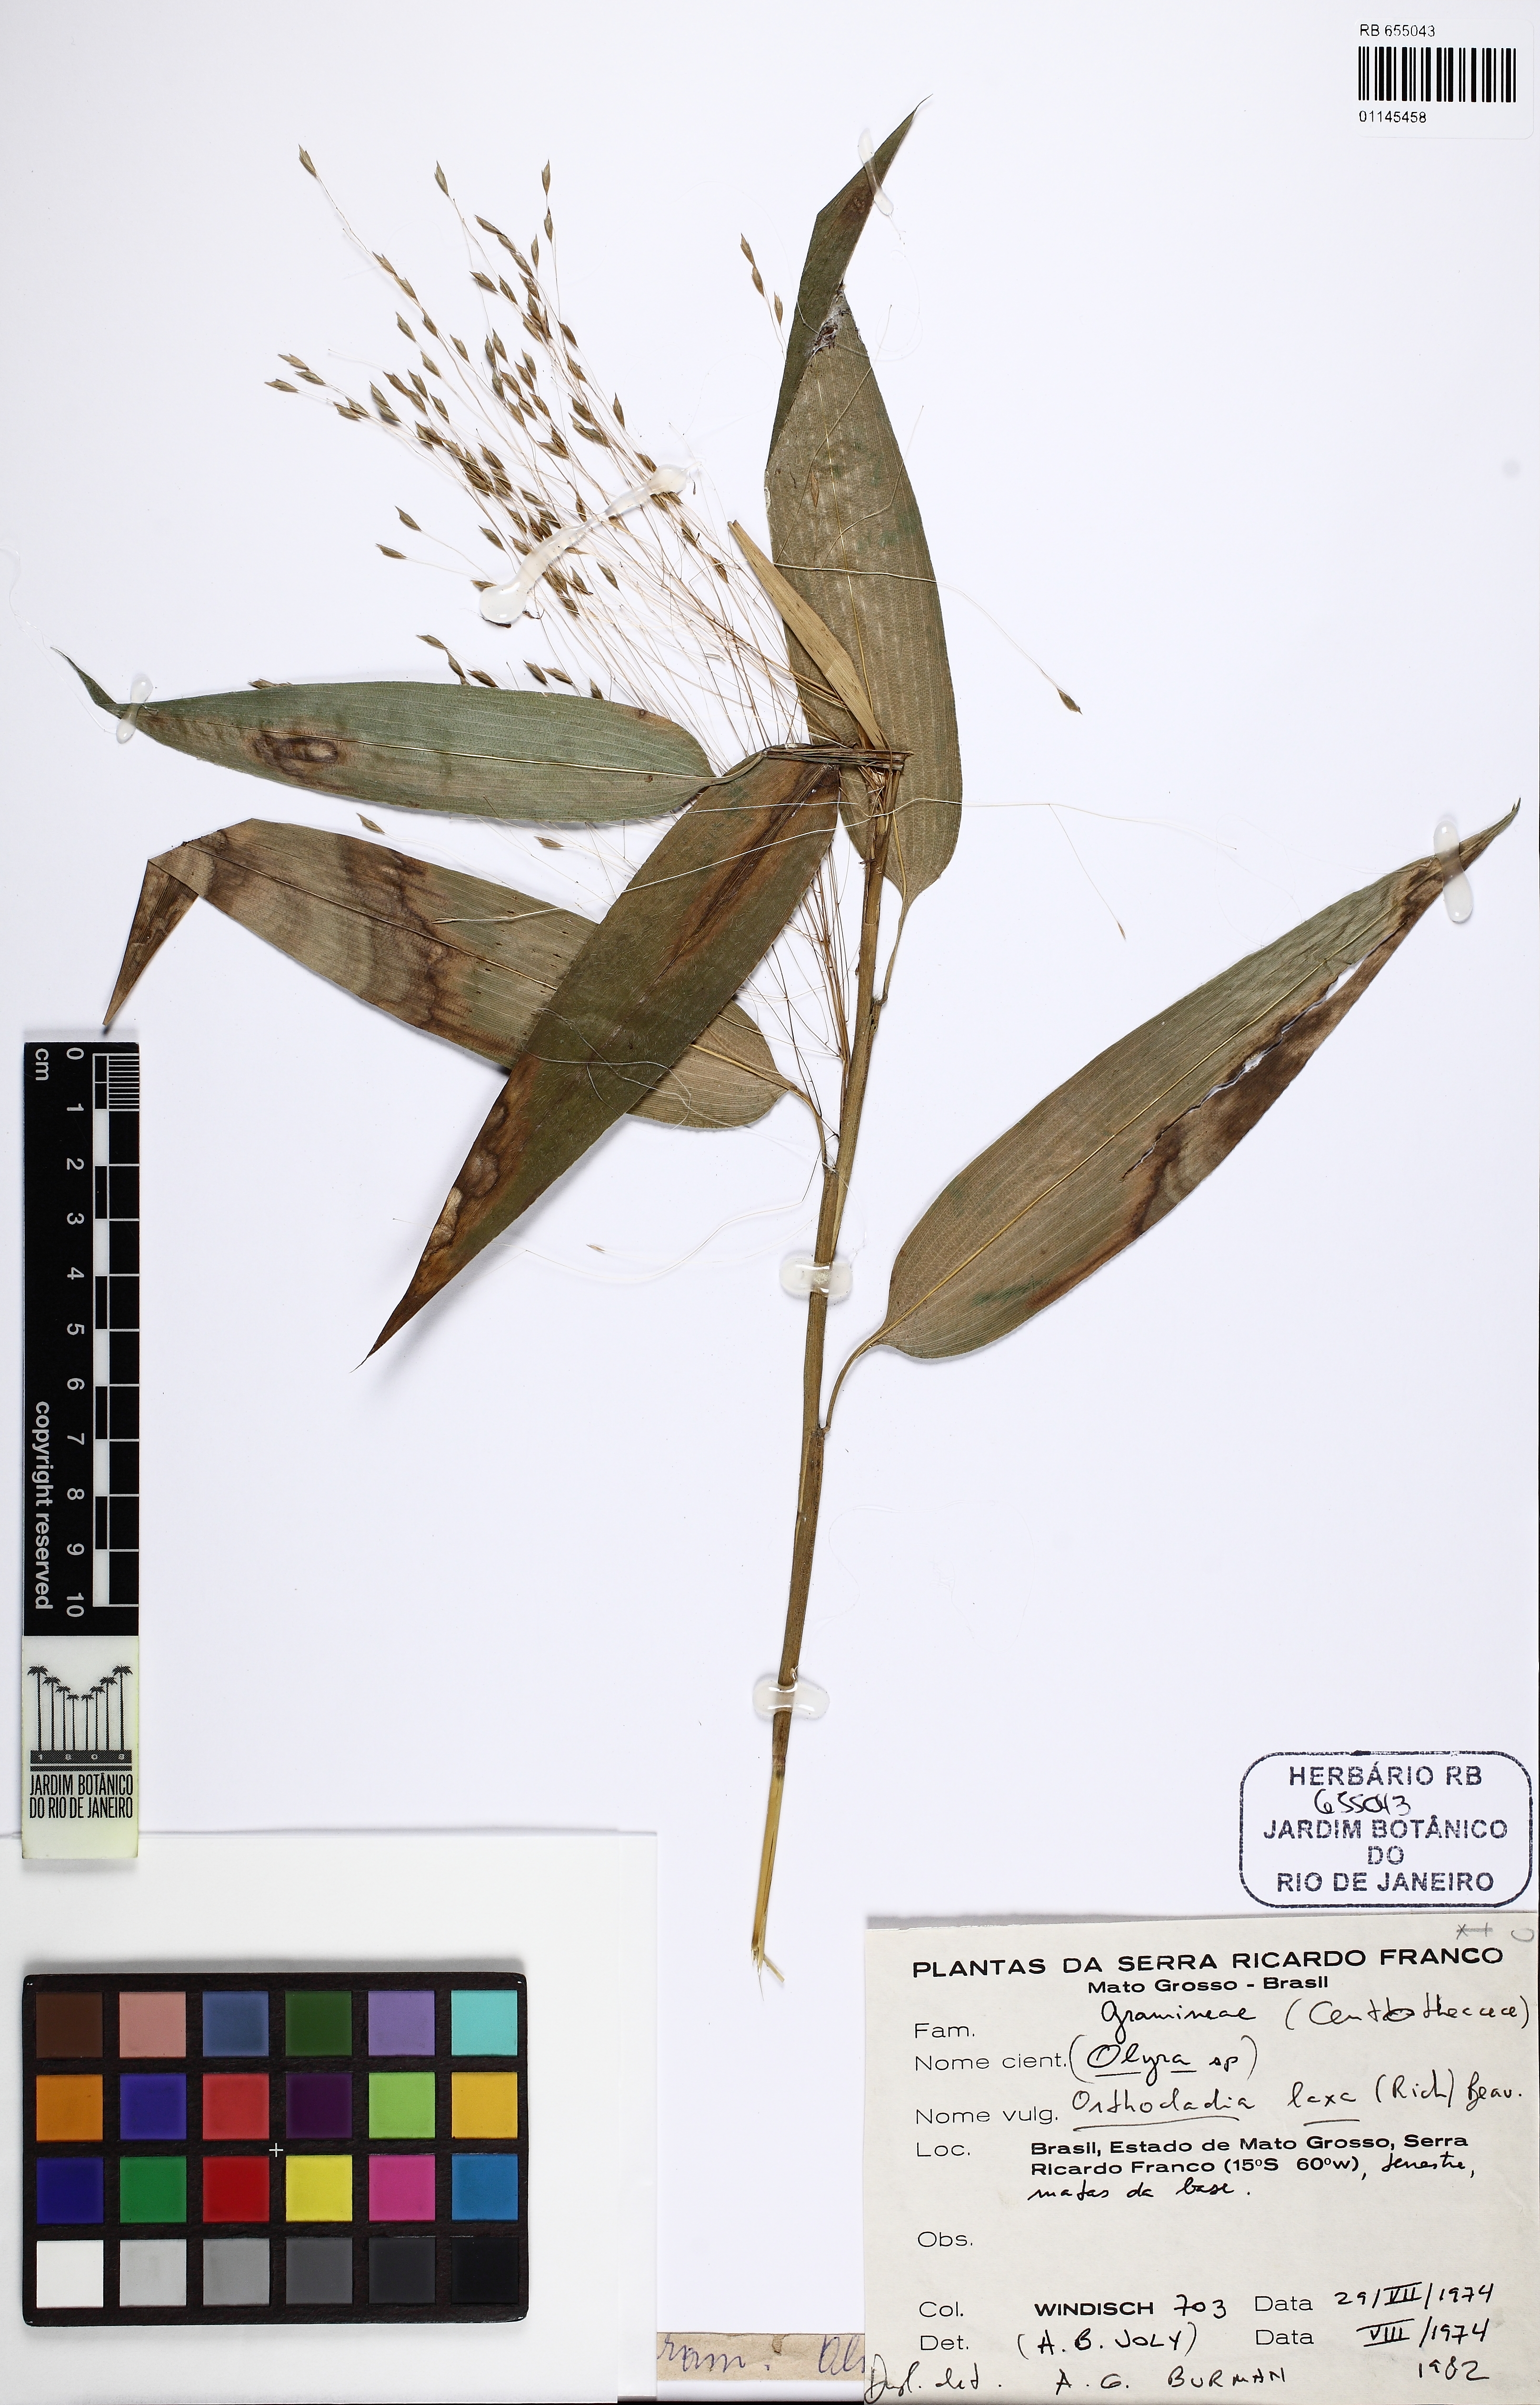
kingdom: Plantae
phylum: Tracheophyta
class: Liliopsida
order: Poales
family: Poaceae
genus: Orthoclada
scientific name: Orthoclada laxa
